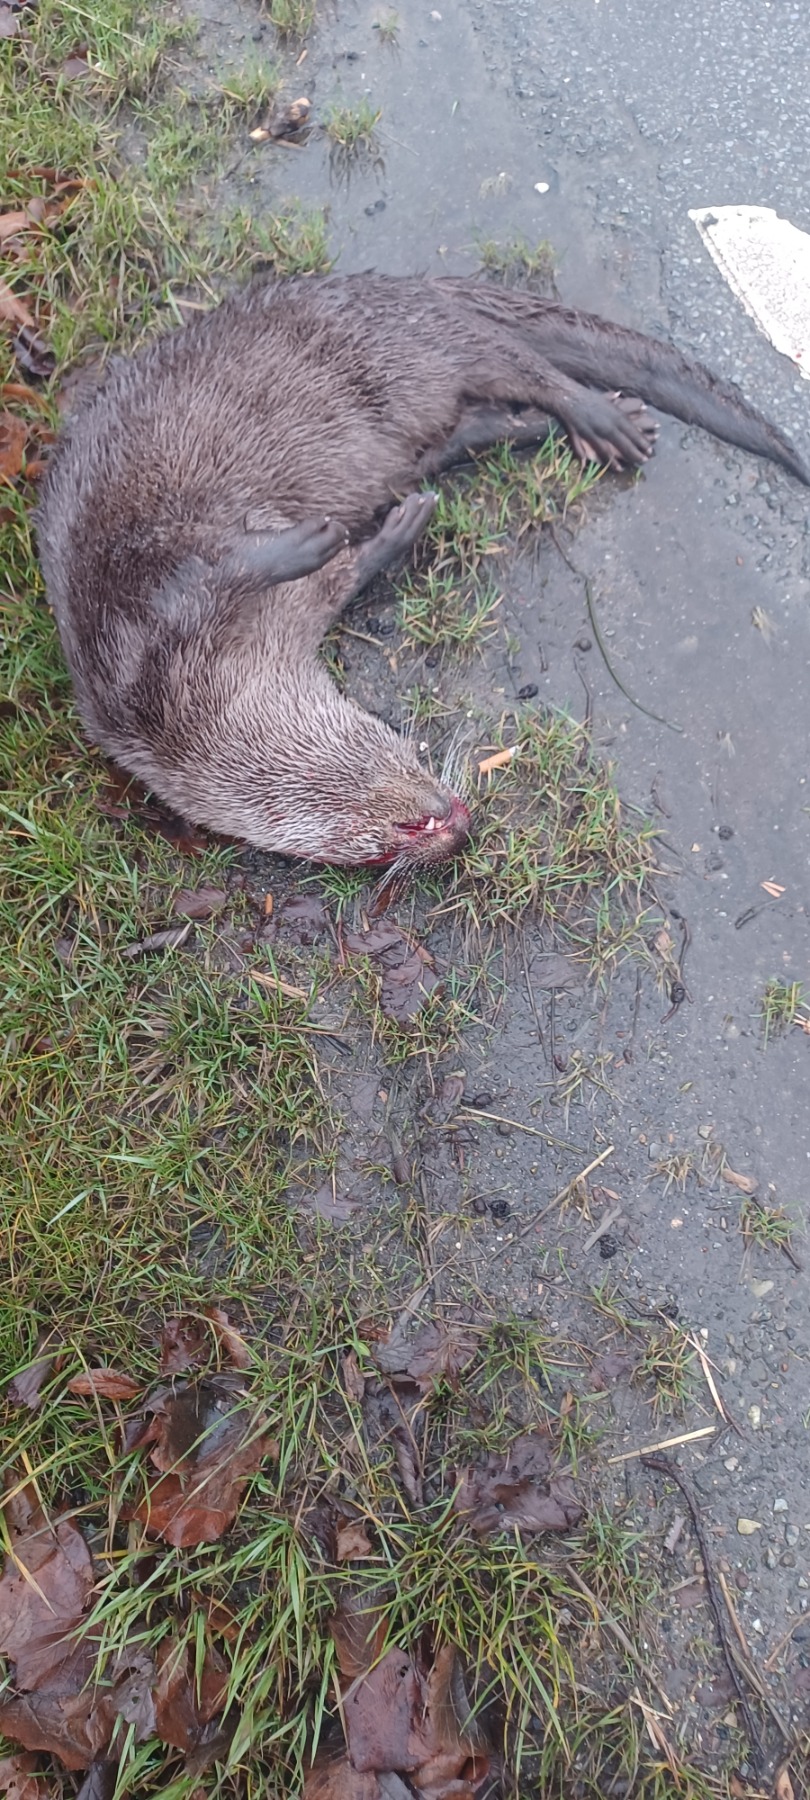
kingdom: Animalia
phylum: Chordata
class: Mammalia
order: Carnivora
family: Mustelidae
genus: Lutra
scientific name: Lutra lutra
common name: Odder
